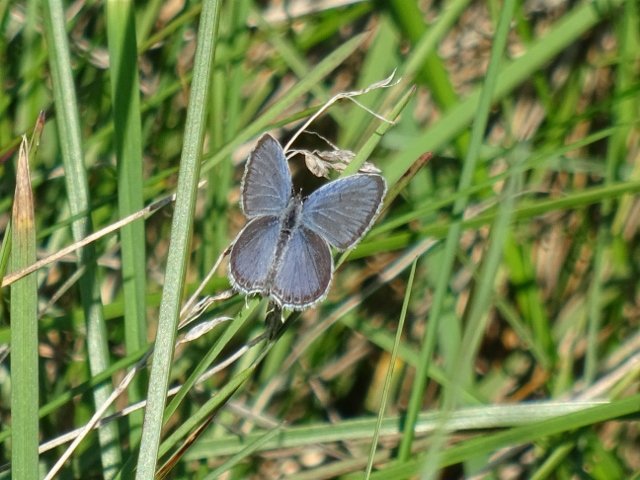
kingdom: Animalia
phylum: Arthropoda
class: Insecta
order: Lepidoptera
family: Lycaenidae
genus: Elkalyce
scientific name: Elkalyce comyntas
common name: Eastern Tailed-Blue
